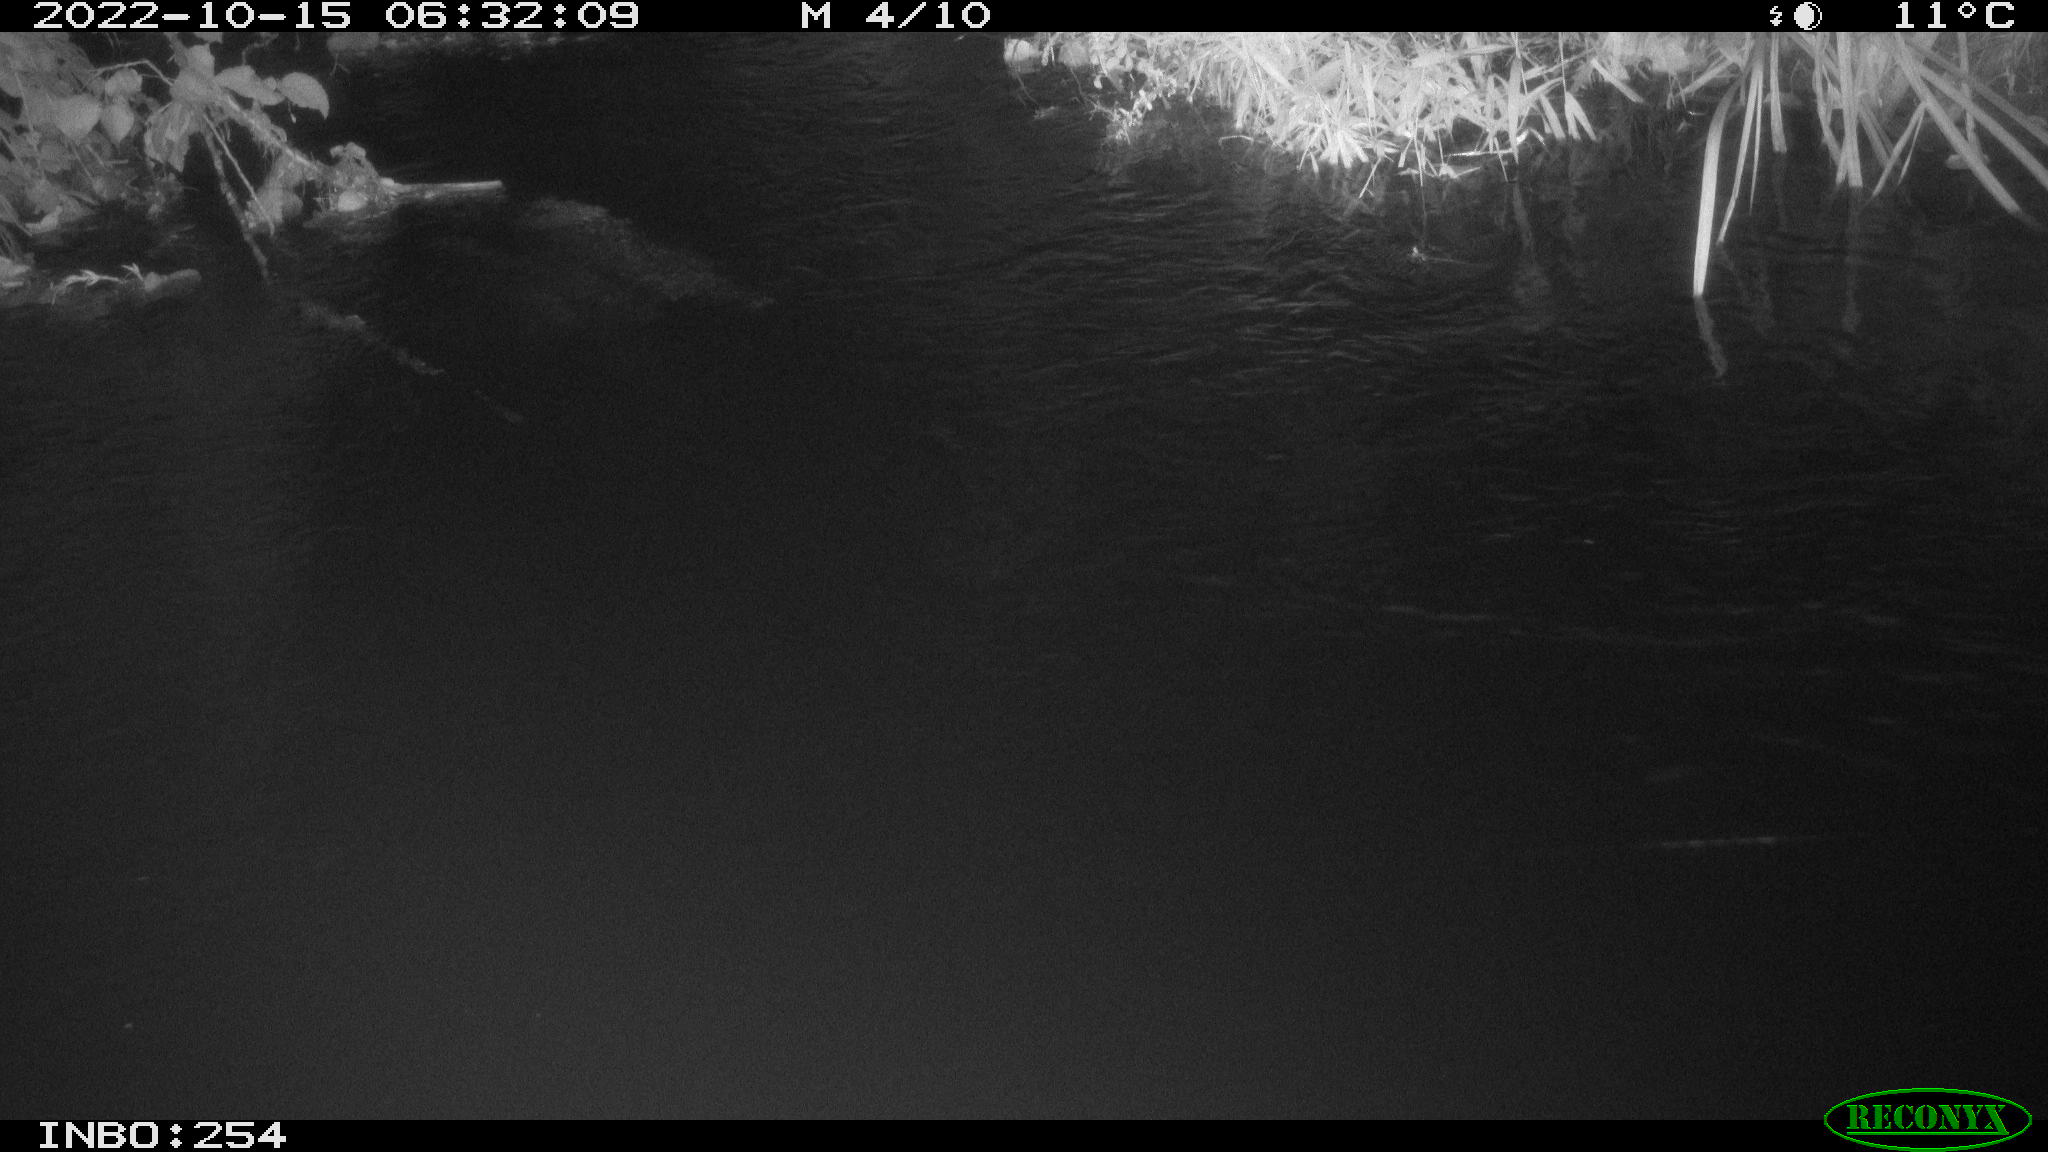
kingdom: Animalia
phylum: Chordata
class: Aves
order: Anseriformes
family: Anatidae
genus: Anas
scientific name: Anas
